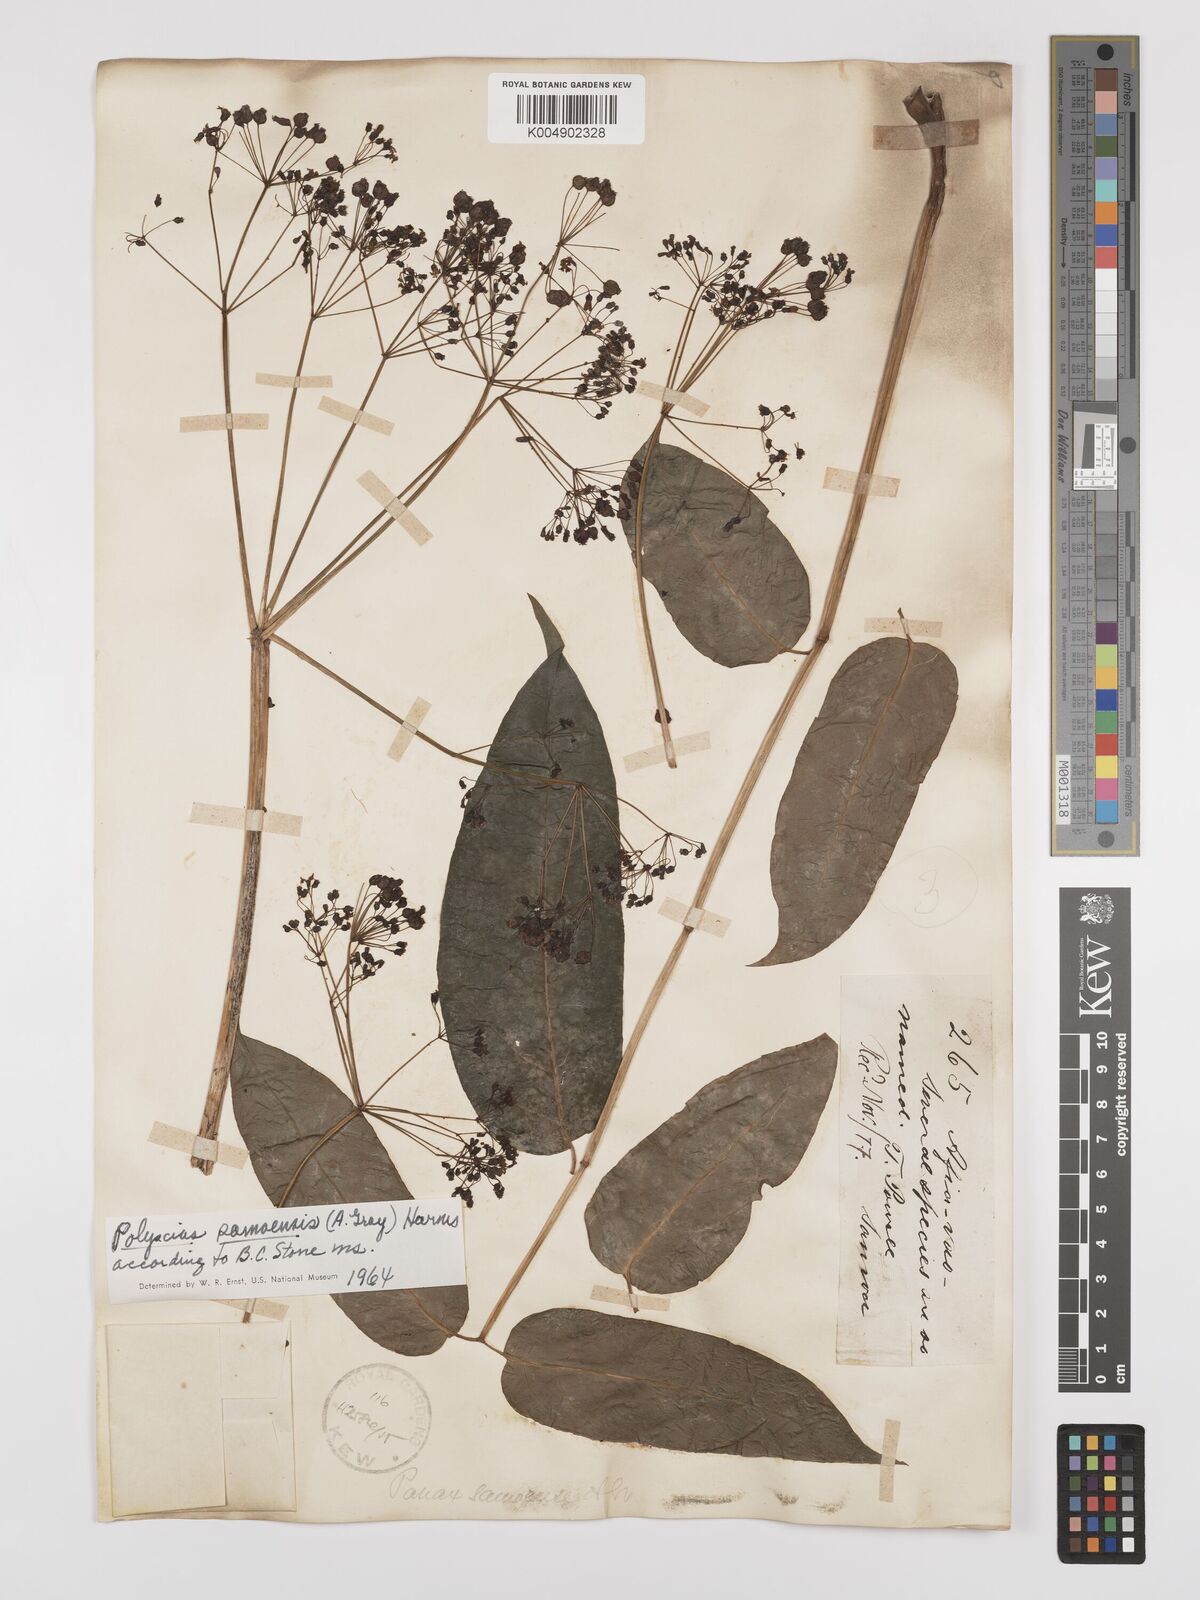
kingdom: Plantae
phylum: Tracheophyta
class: Magnoliopsida
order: Apiales
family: Araliaceae
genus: Polyscias
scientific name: Polyscias samoensis
